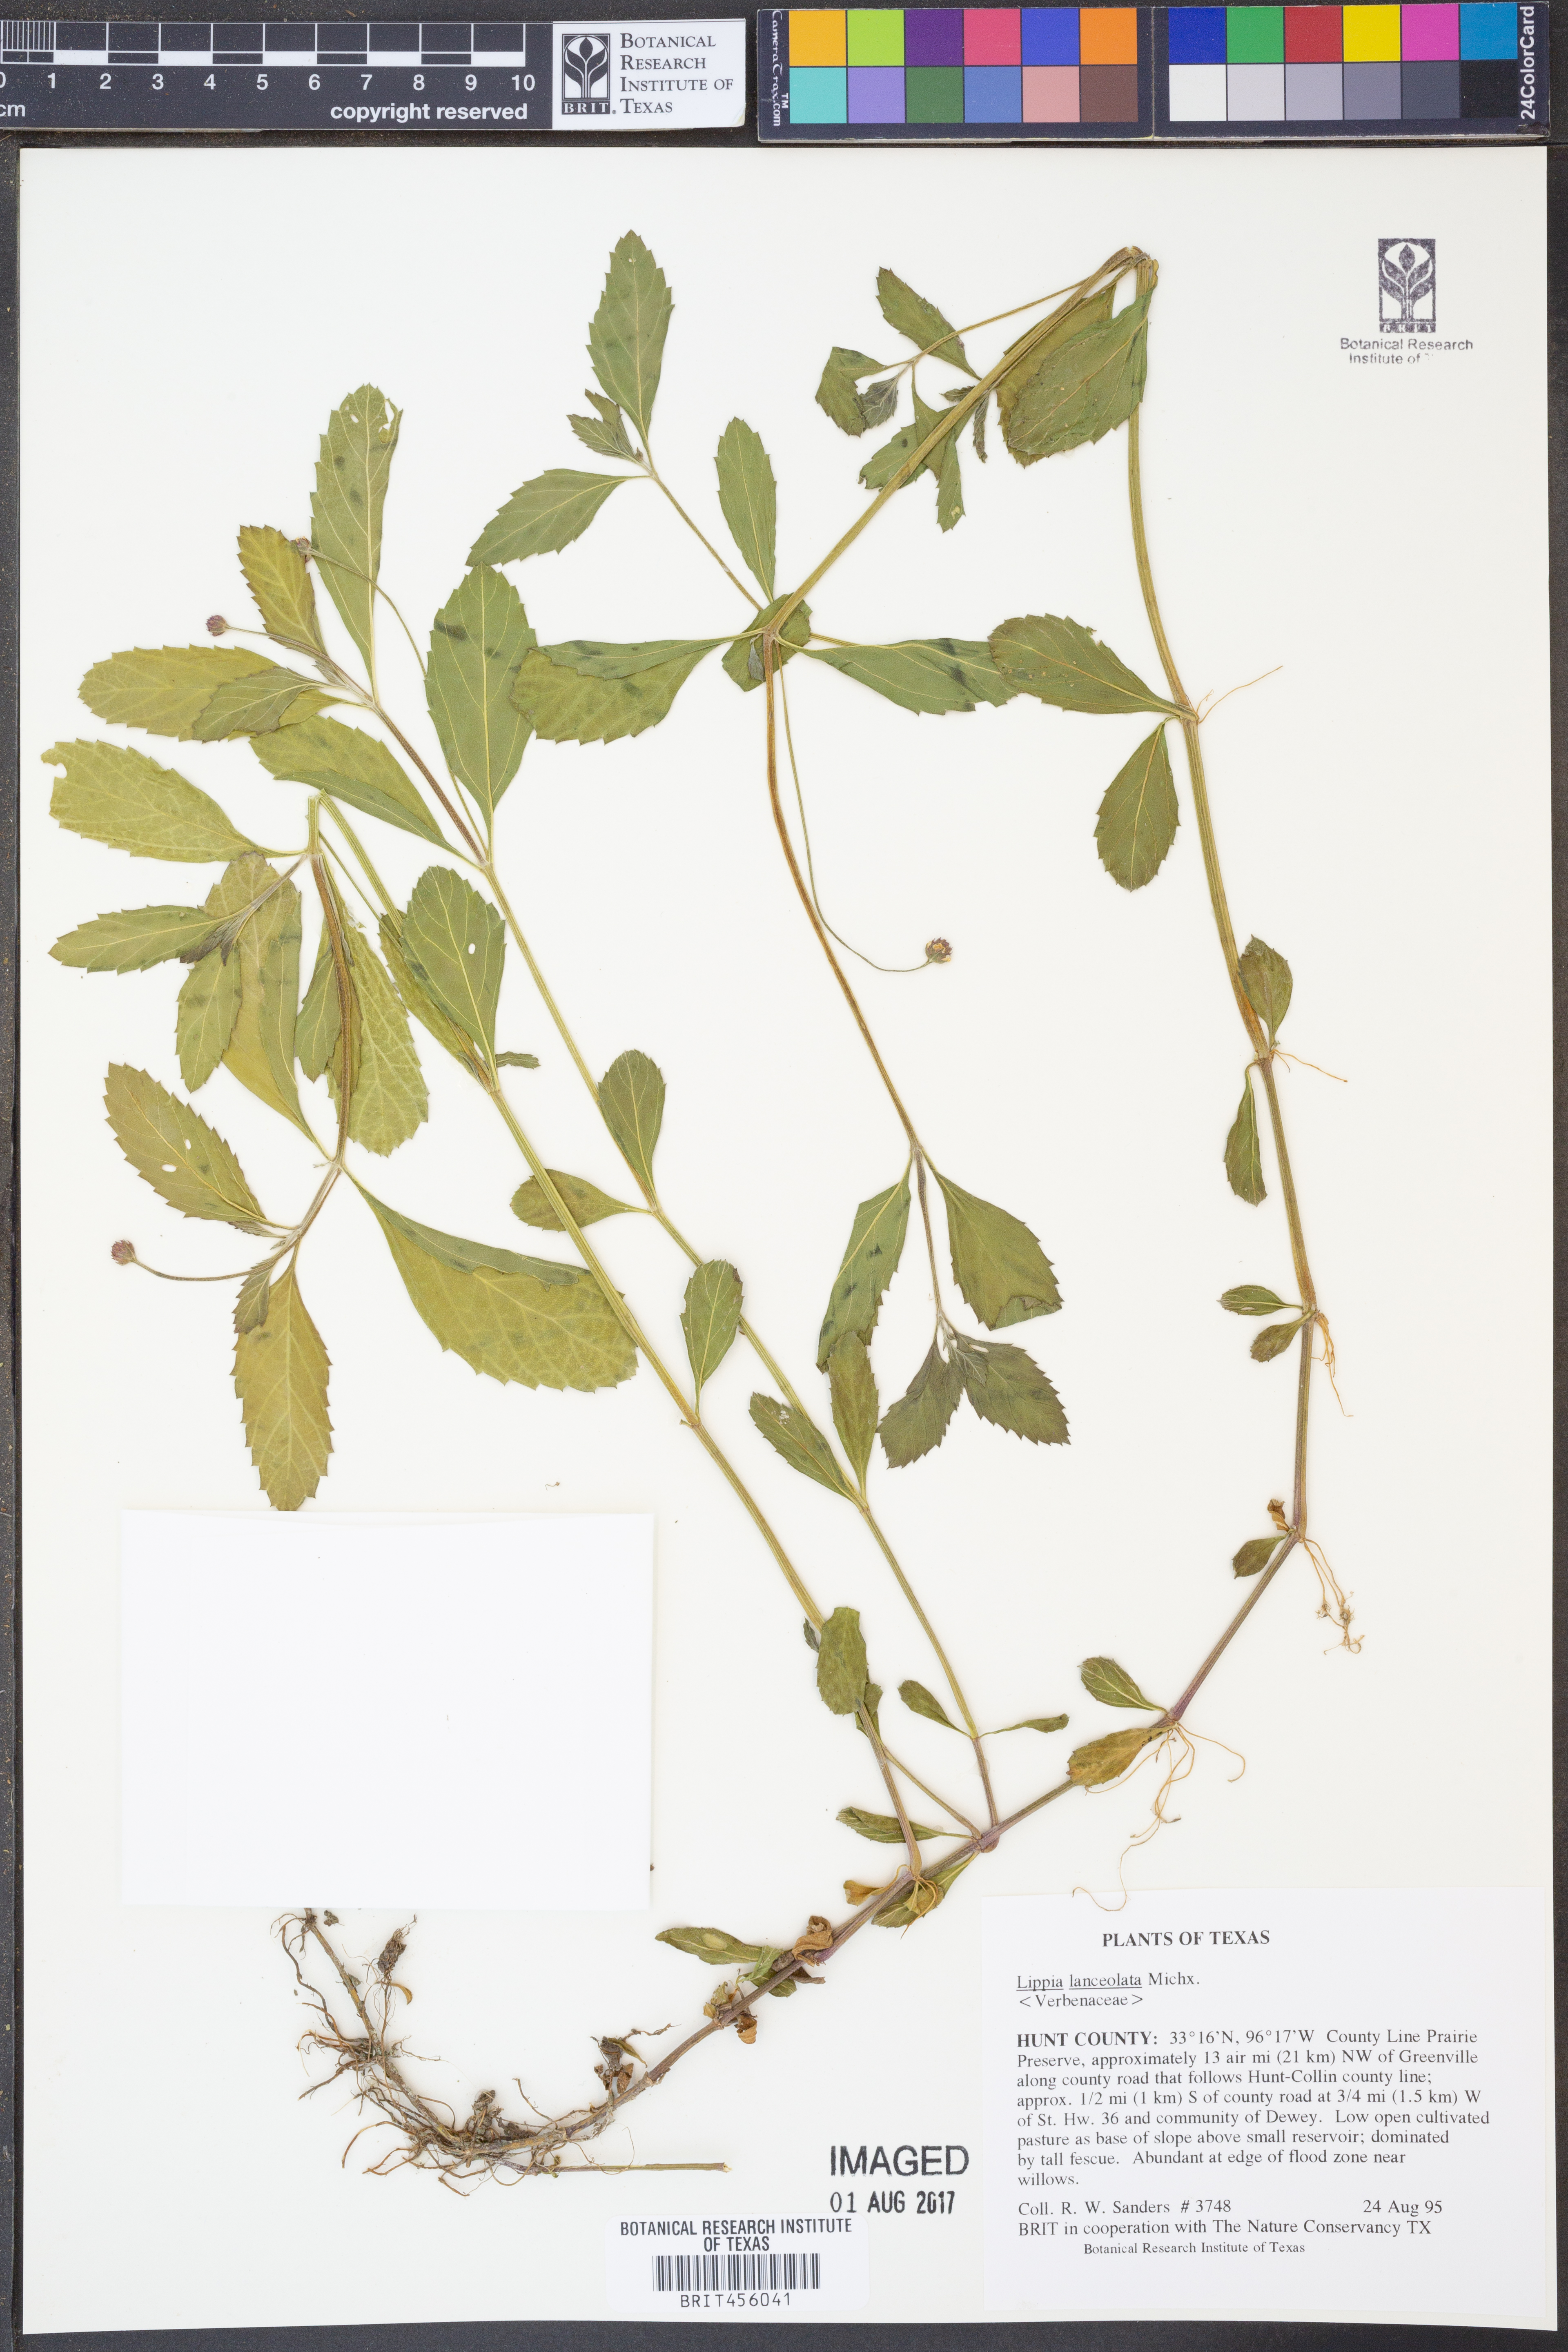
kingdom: Plantae
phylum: Tracheophyta
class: Magnoliopsida
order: Lamiales
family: Verbenaceae
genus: Phyla
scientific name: Phyla lanceolata
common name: Northern fogfruit
